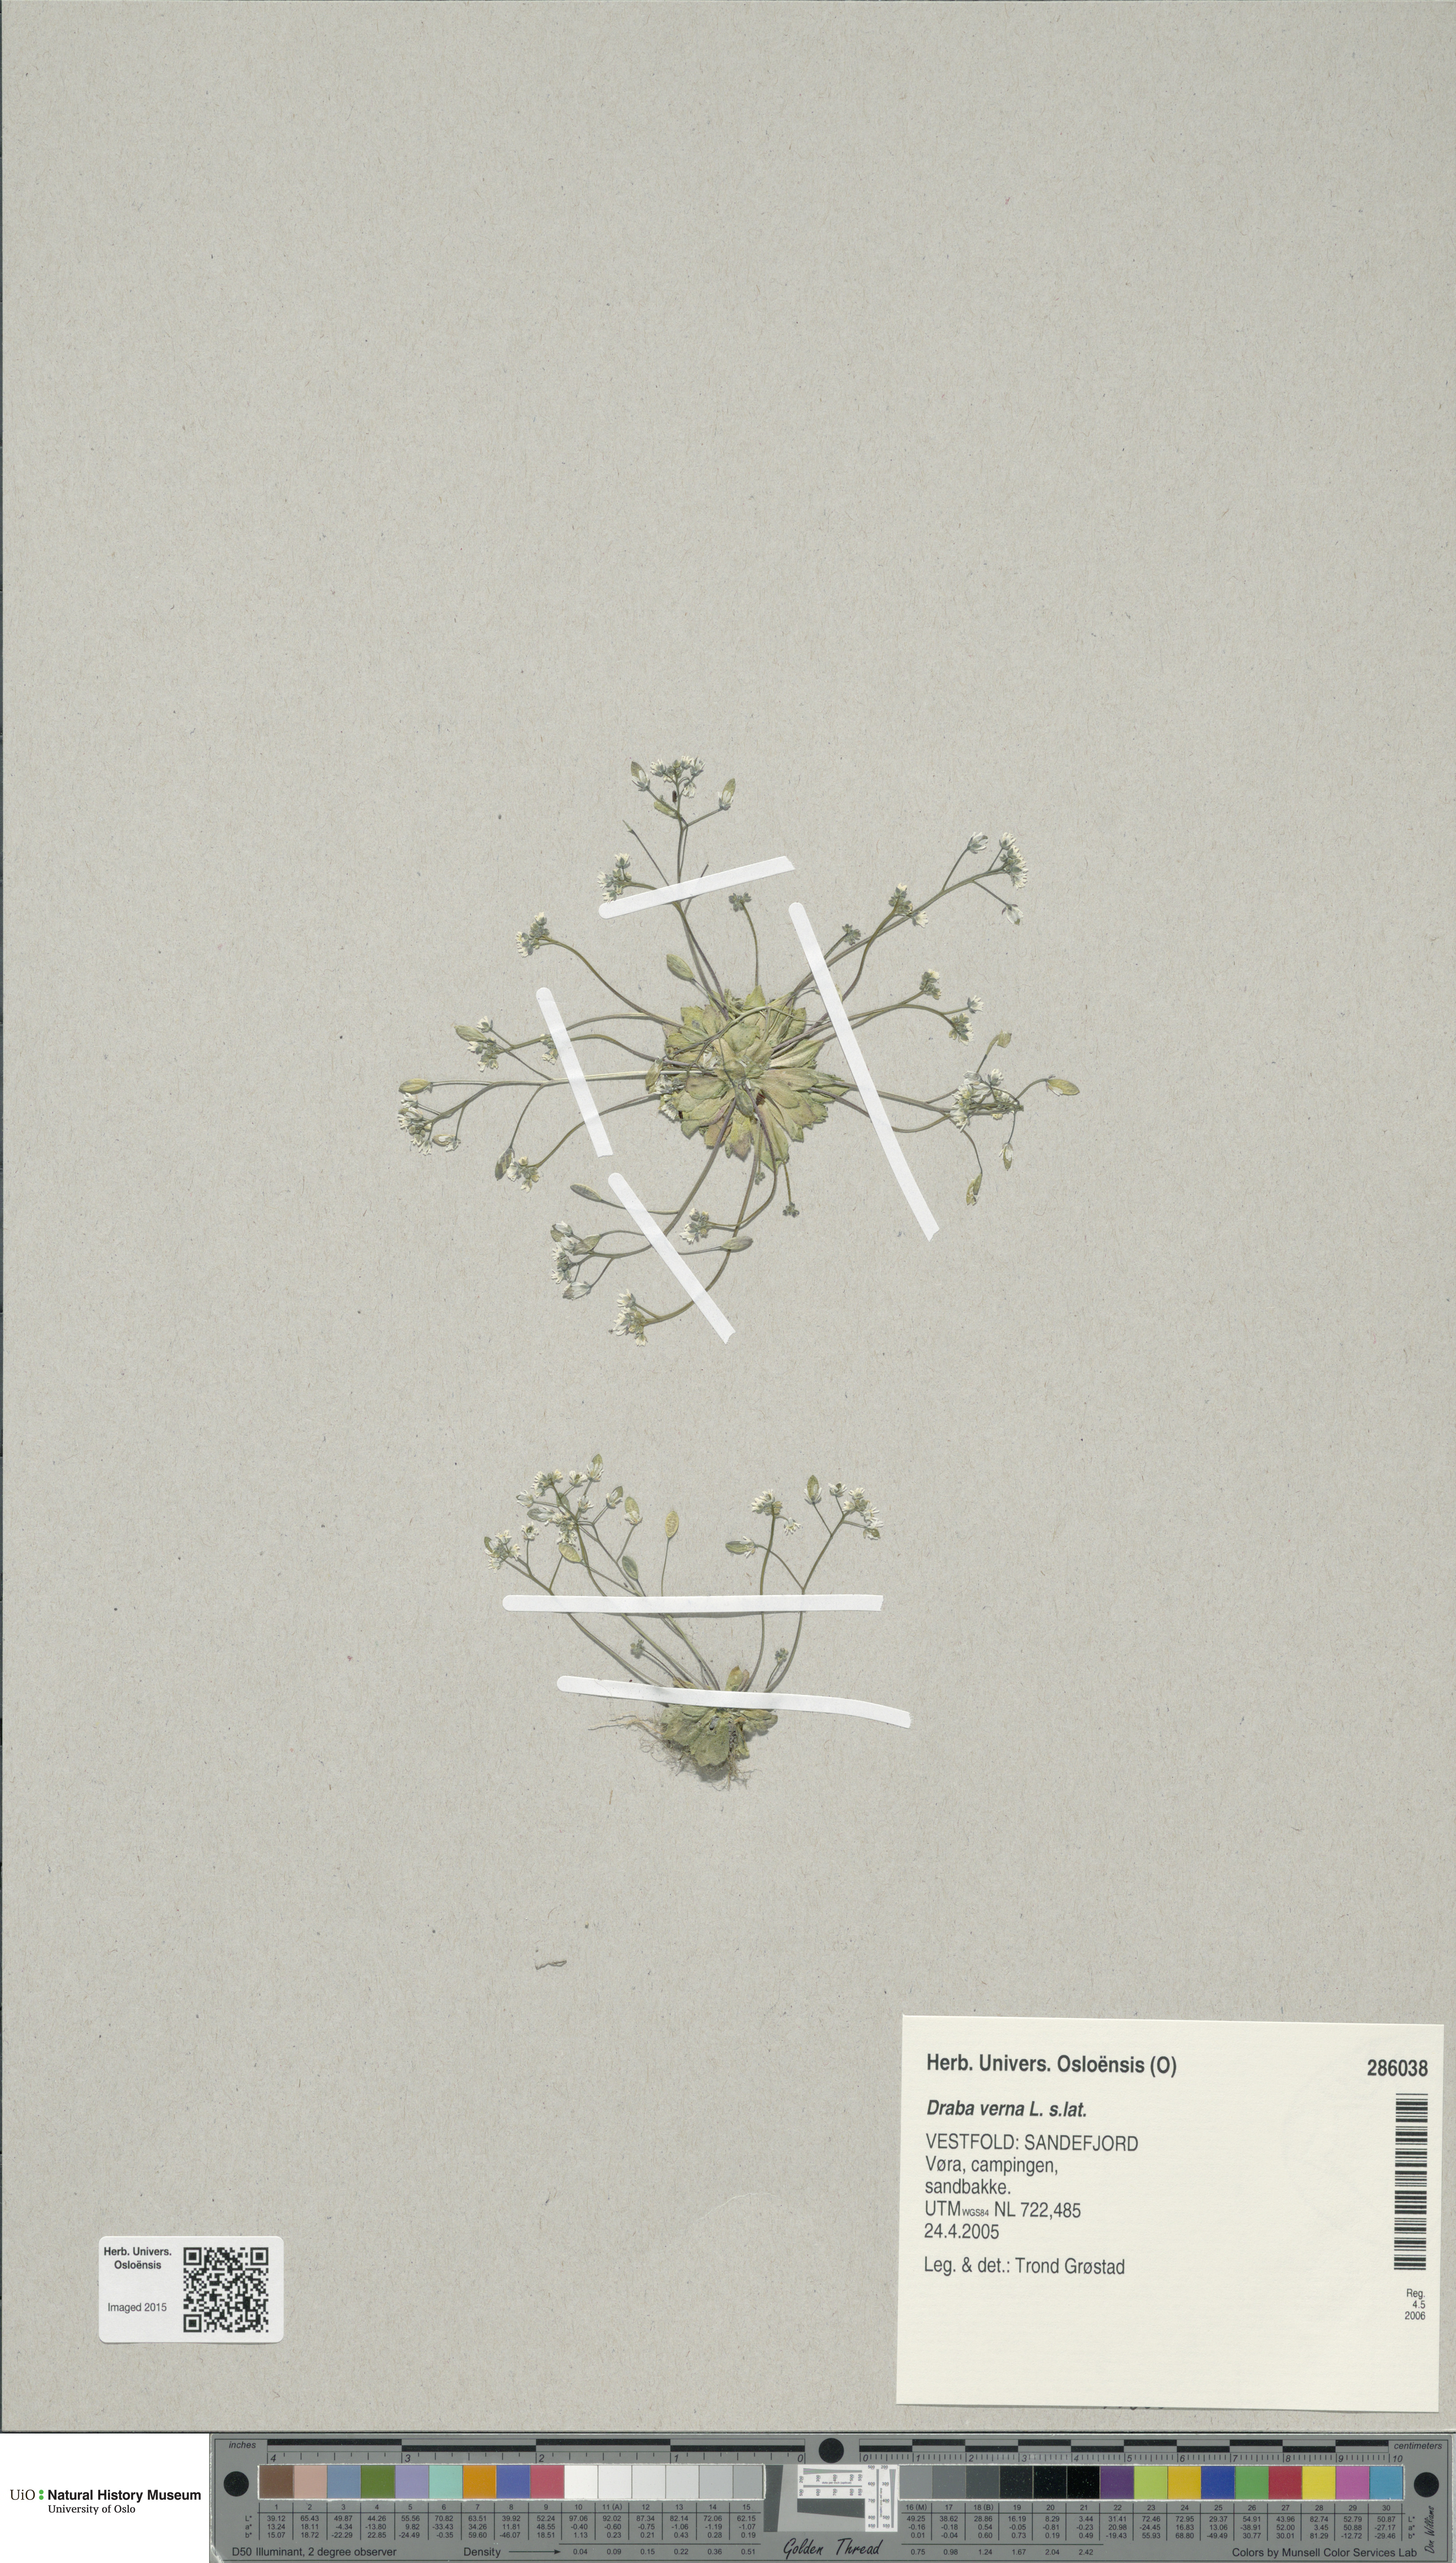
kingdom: Plantae
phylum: Tracheophyta
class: Magnoliopsida
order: Brassicales
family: Brassicaceae
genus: Draba
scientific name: Draba verna
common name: Spring draba
